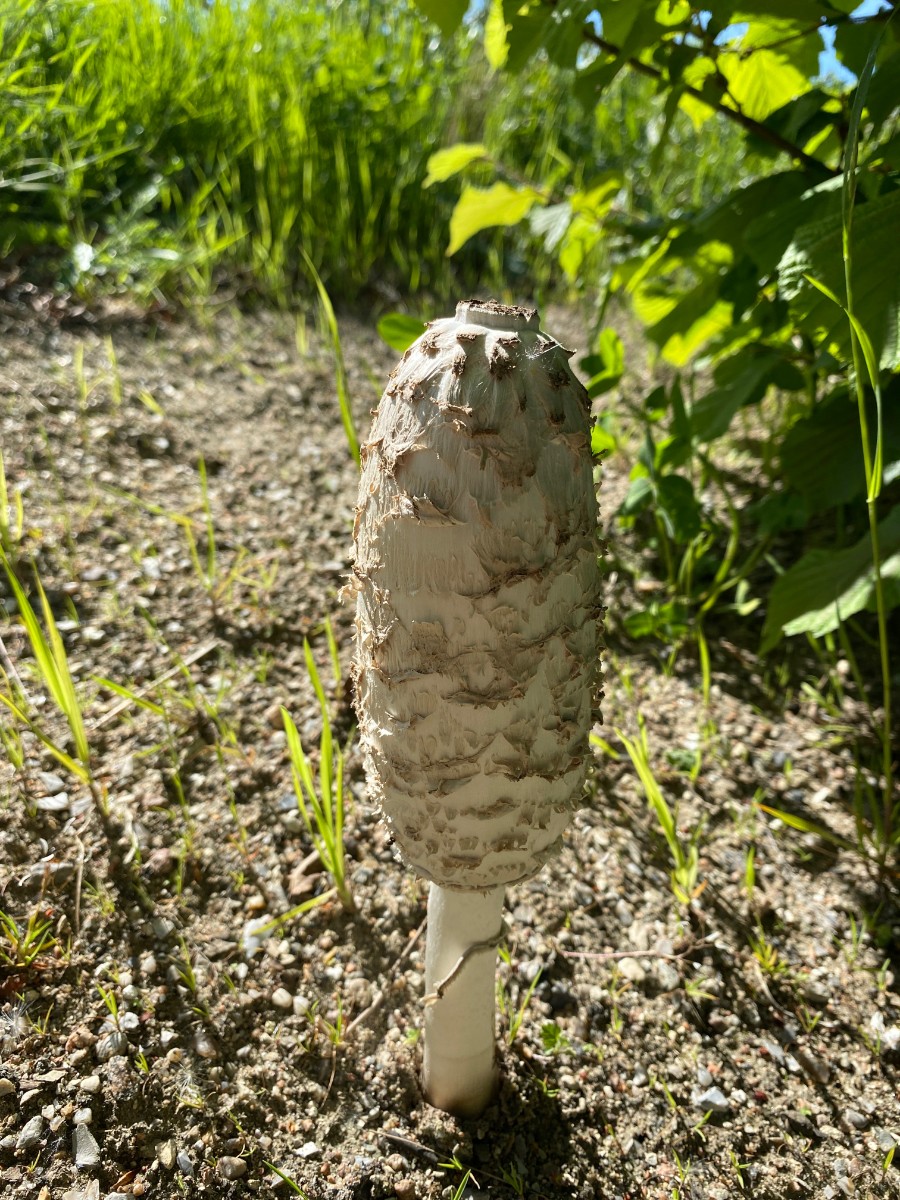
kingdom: Fungi
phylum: Basidiomycota
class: Agaricomycetes
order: Agaricales
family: Agaricaceae
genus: Coprinus
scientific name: Coprinus comatus
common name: stor parykhat
